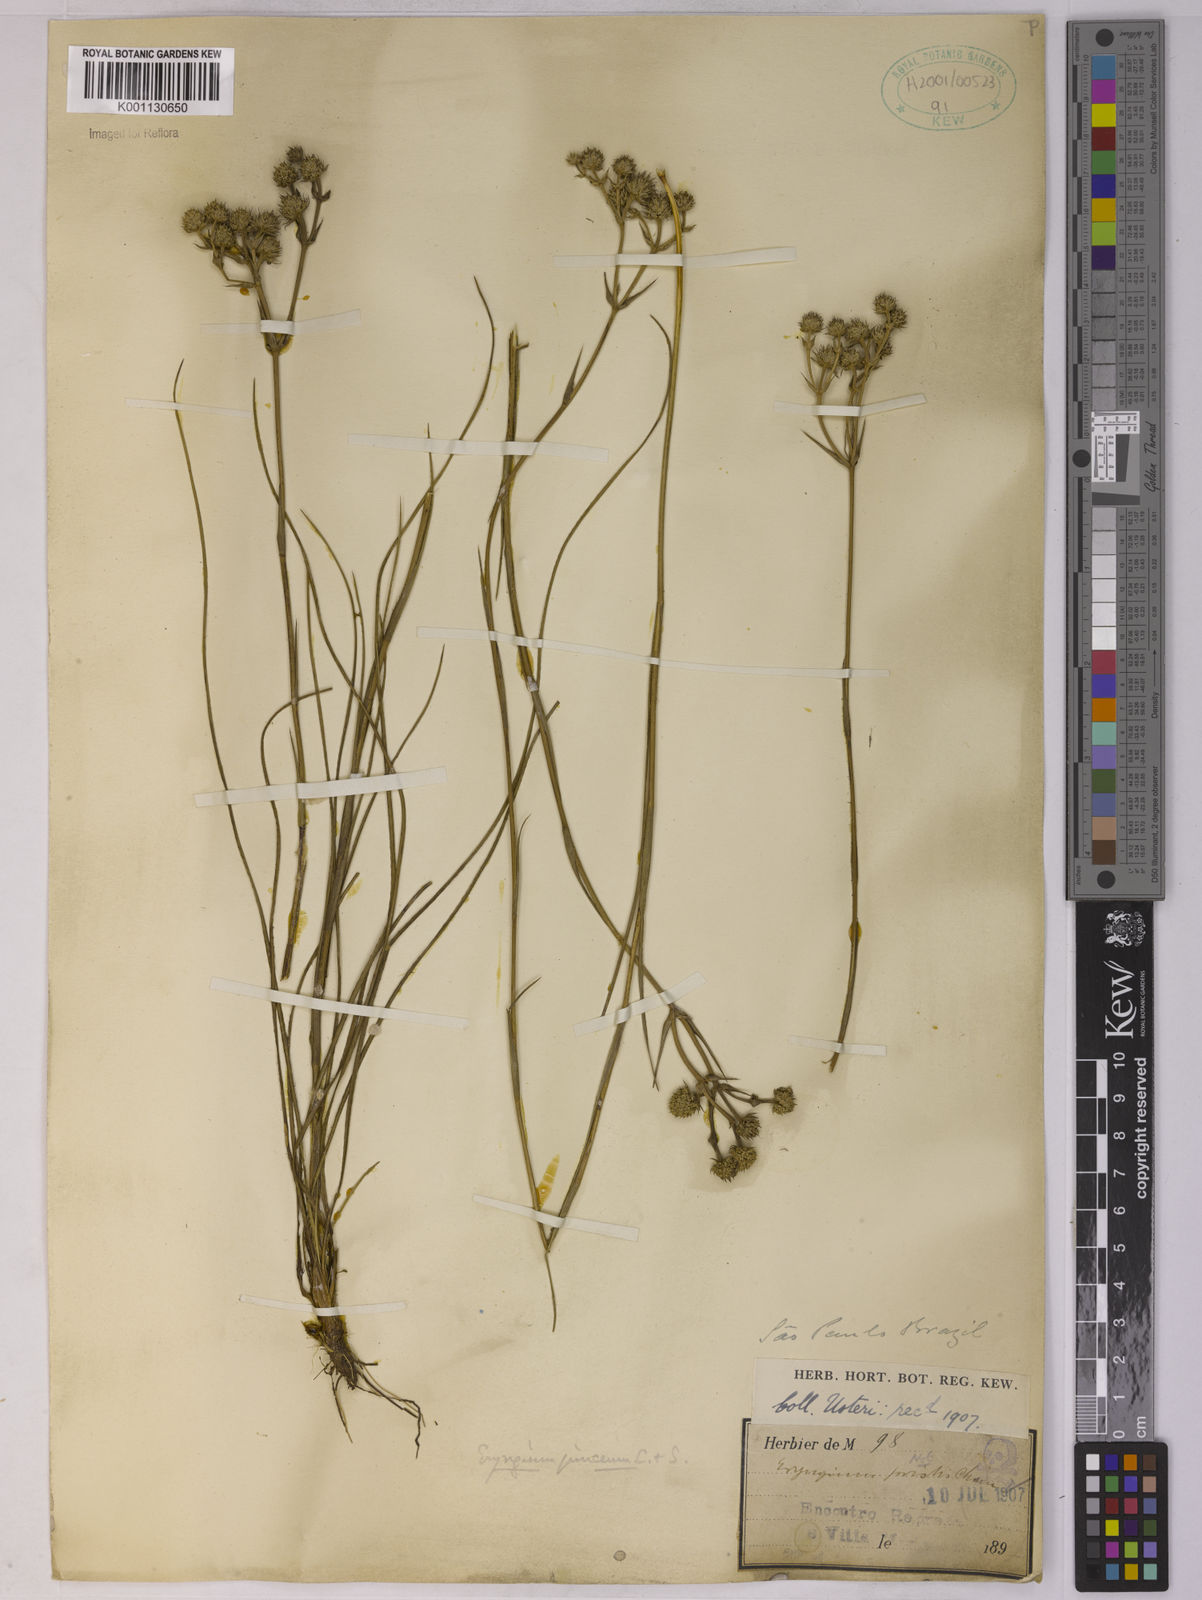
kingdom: Plantae
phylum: Tracheophyta
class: Magnoliopsida
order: Apiales
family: Apiaceae
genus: Eryngium
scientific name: Eryngium junceum
